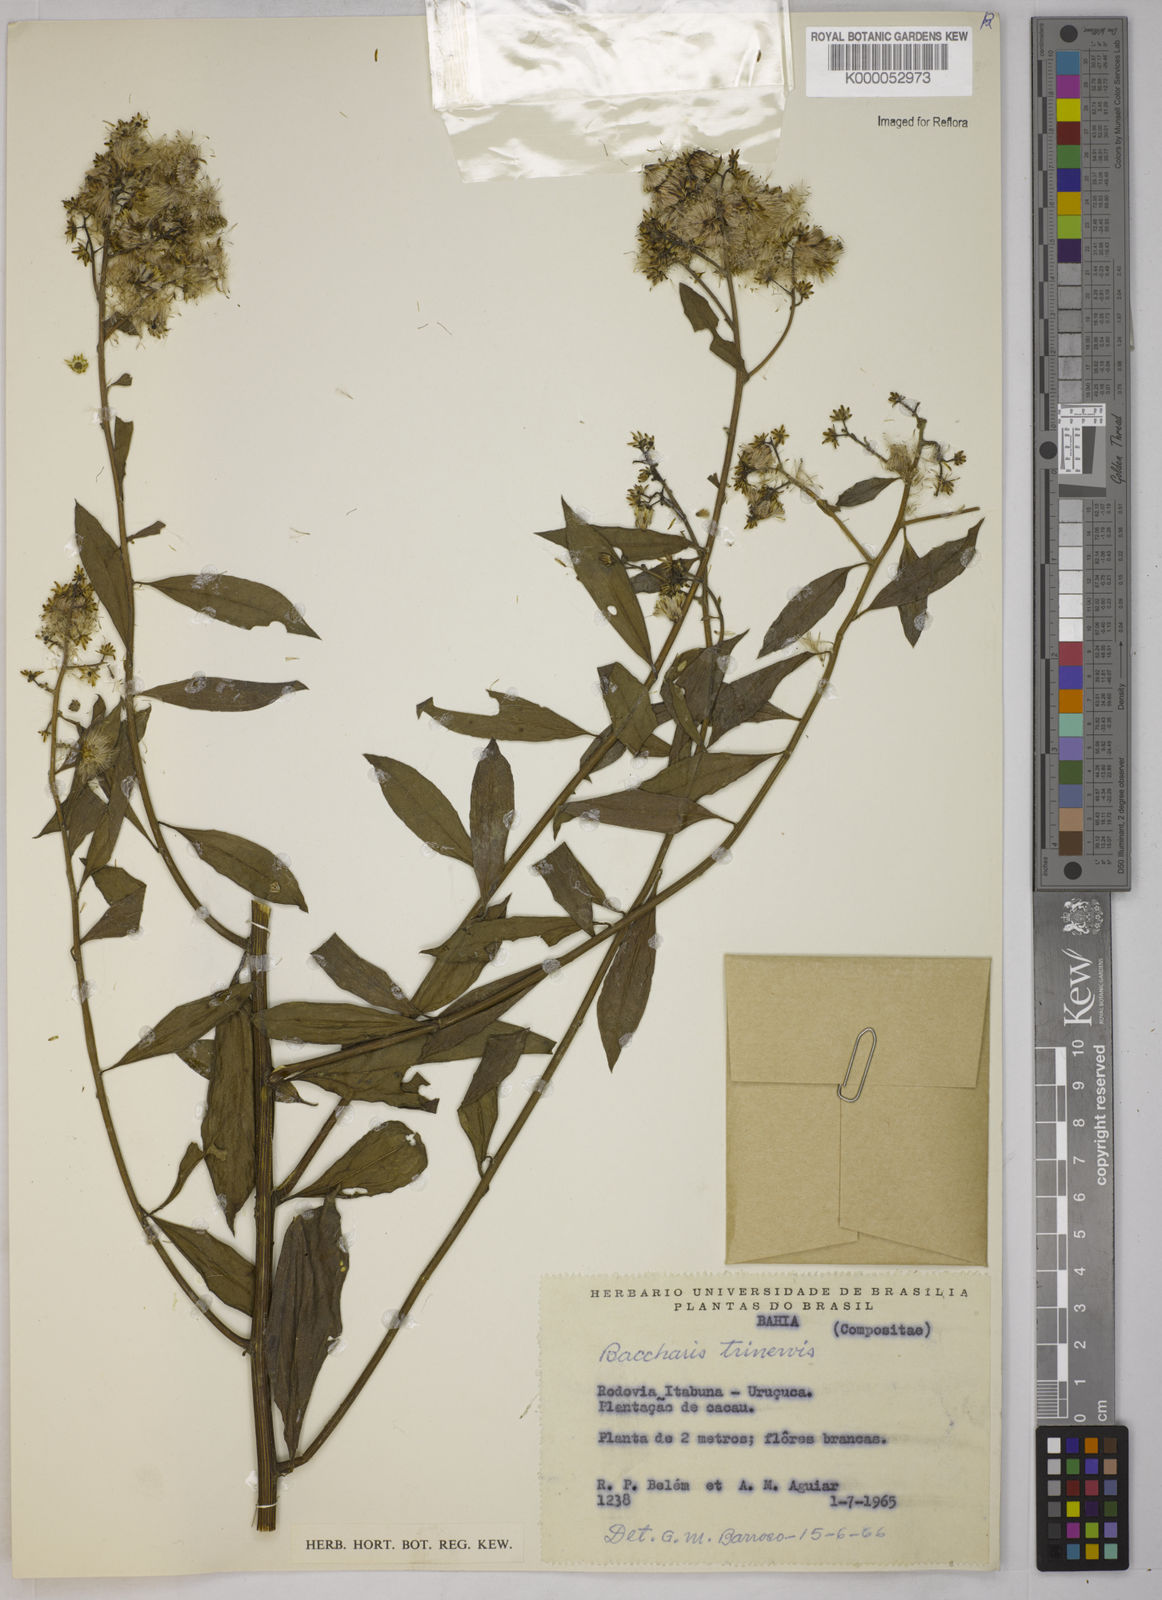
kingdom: Plantae
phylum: Tracheophyta
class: Magnoliopsida
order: Asterales
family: Asteraceae
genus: Baccharis
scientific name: Baccharis trinervis
